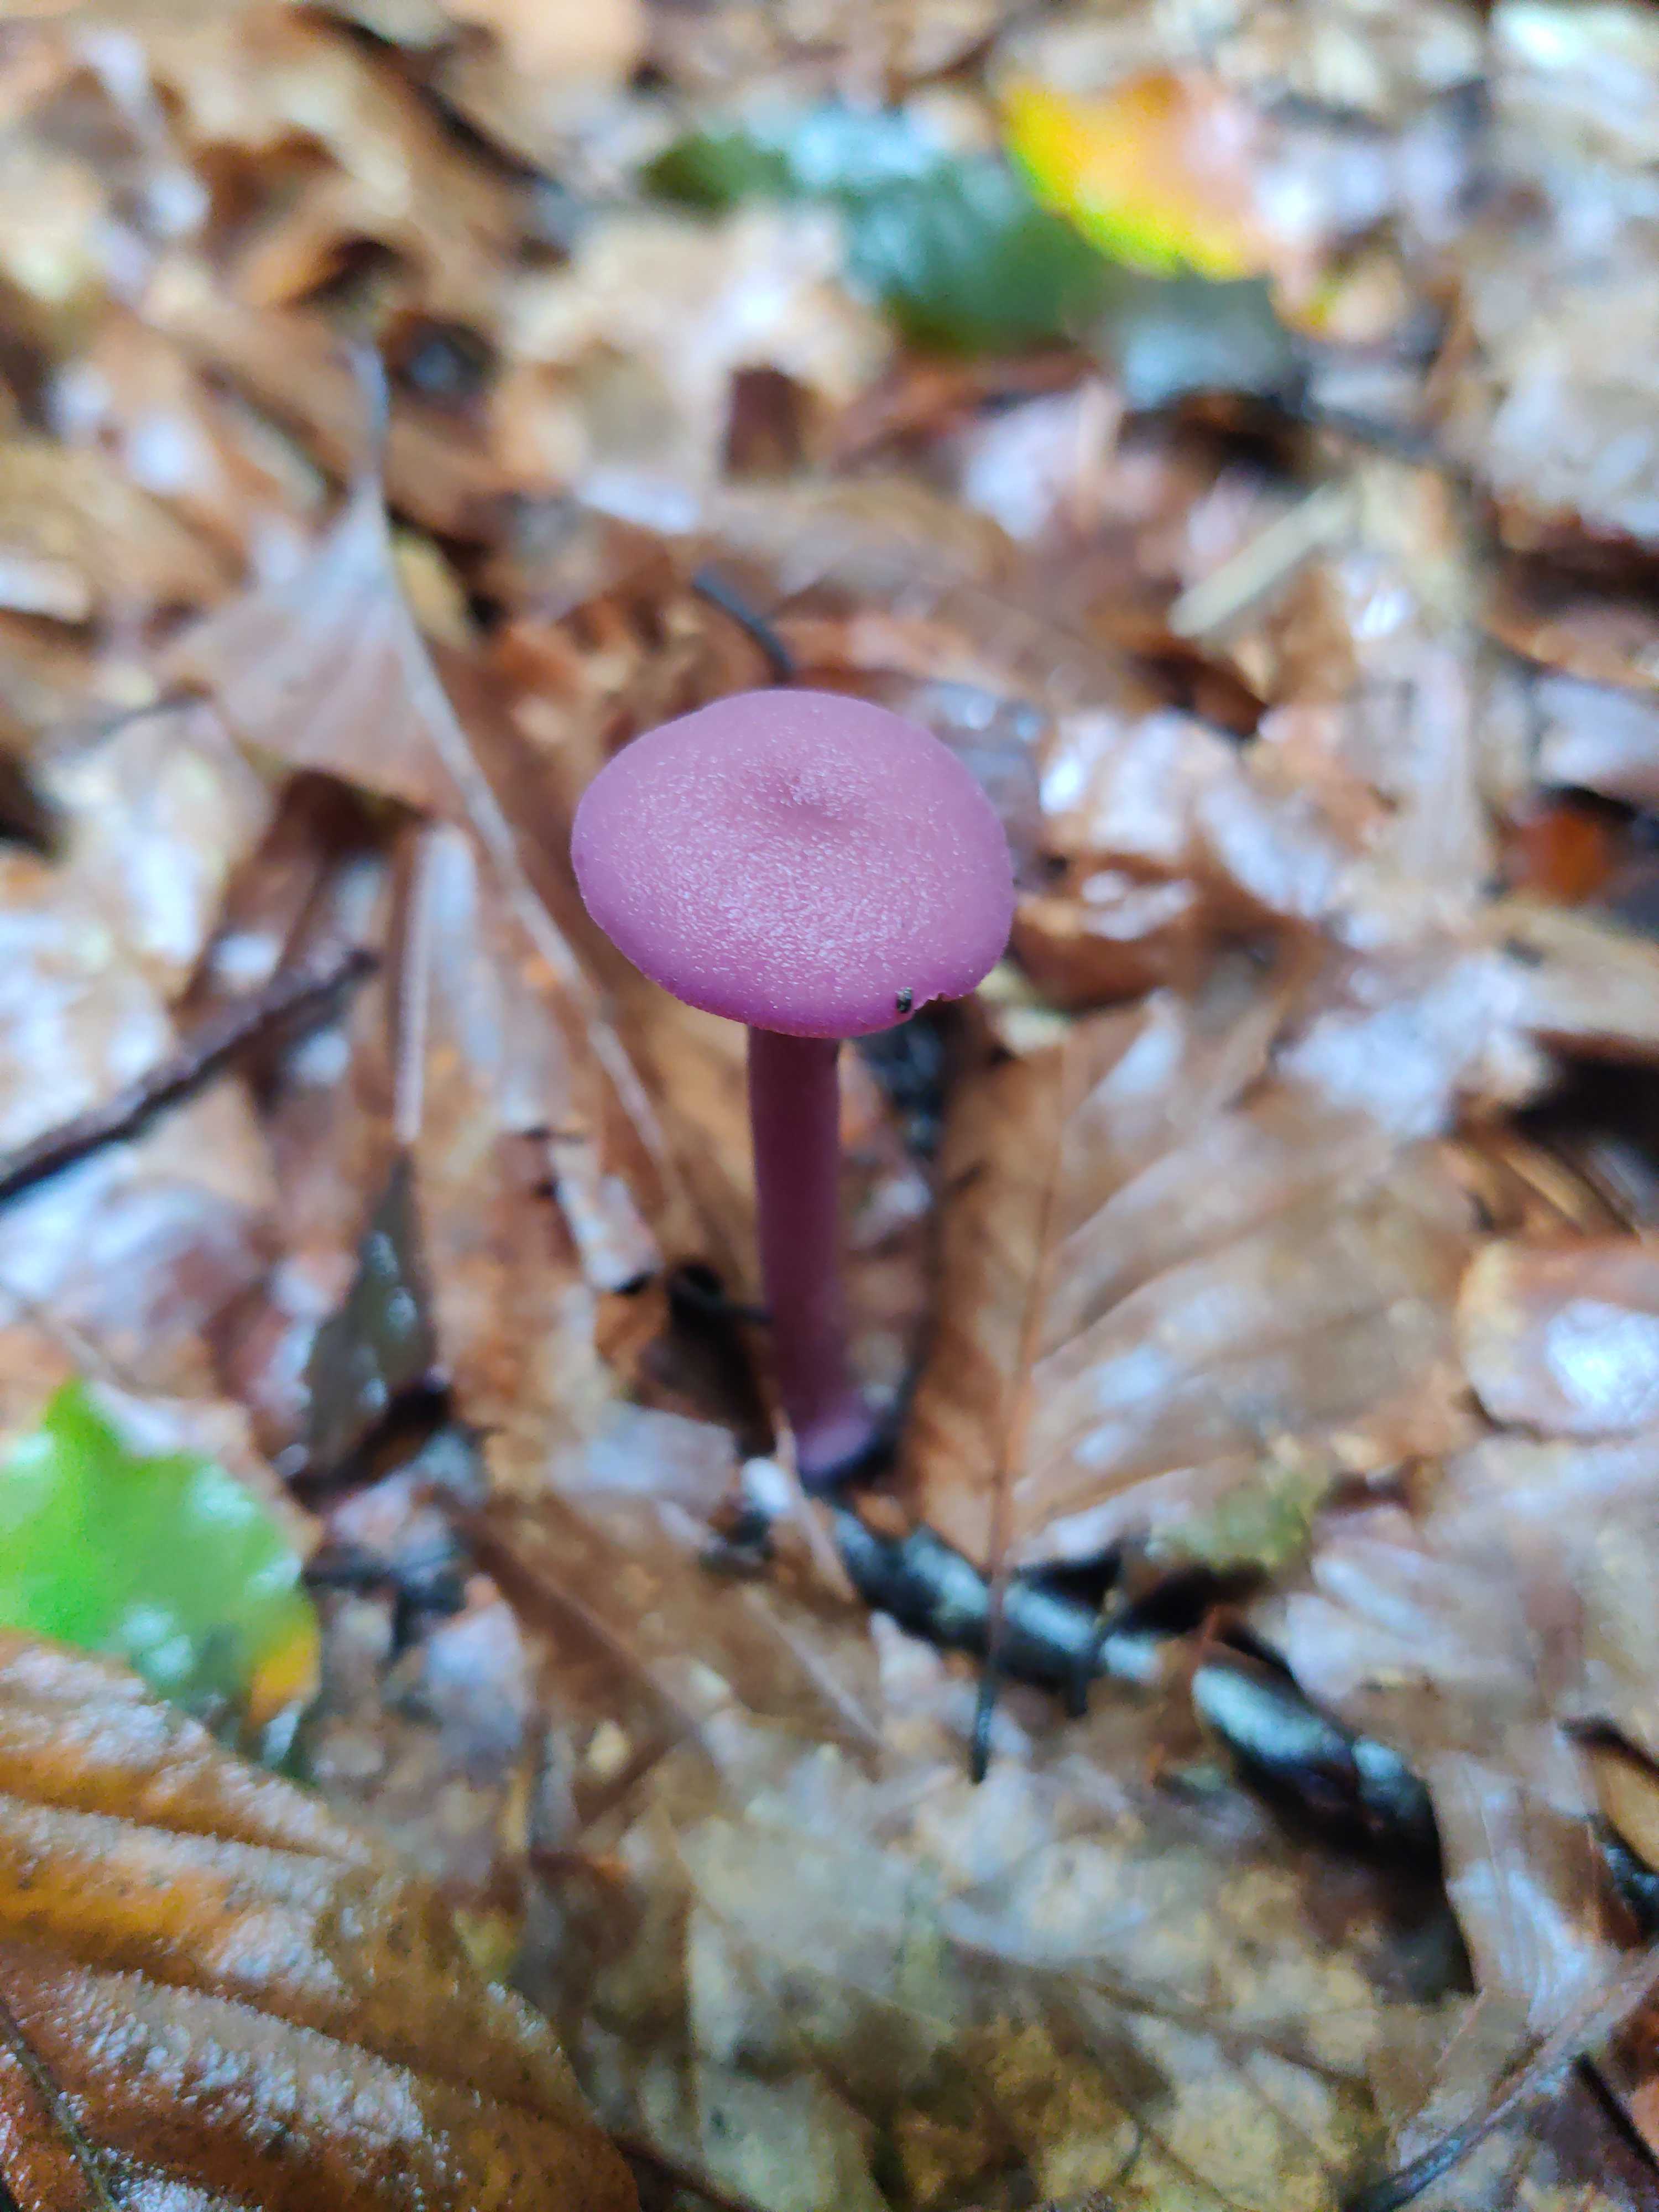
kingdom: Fungi
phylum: Basidiomycota
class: Agaricomycetes
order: Agaricales
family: Hydnangiaceae
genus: Laccaria
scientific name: Laccaria amethystina
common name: violet ametysthat
